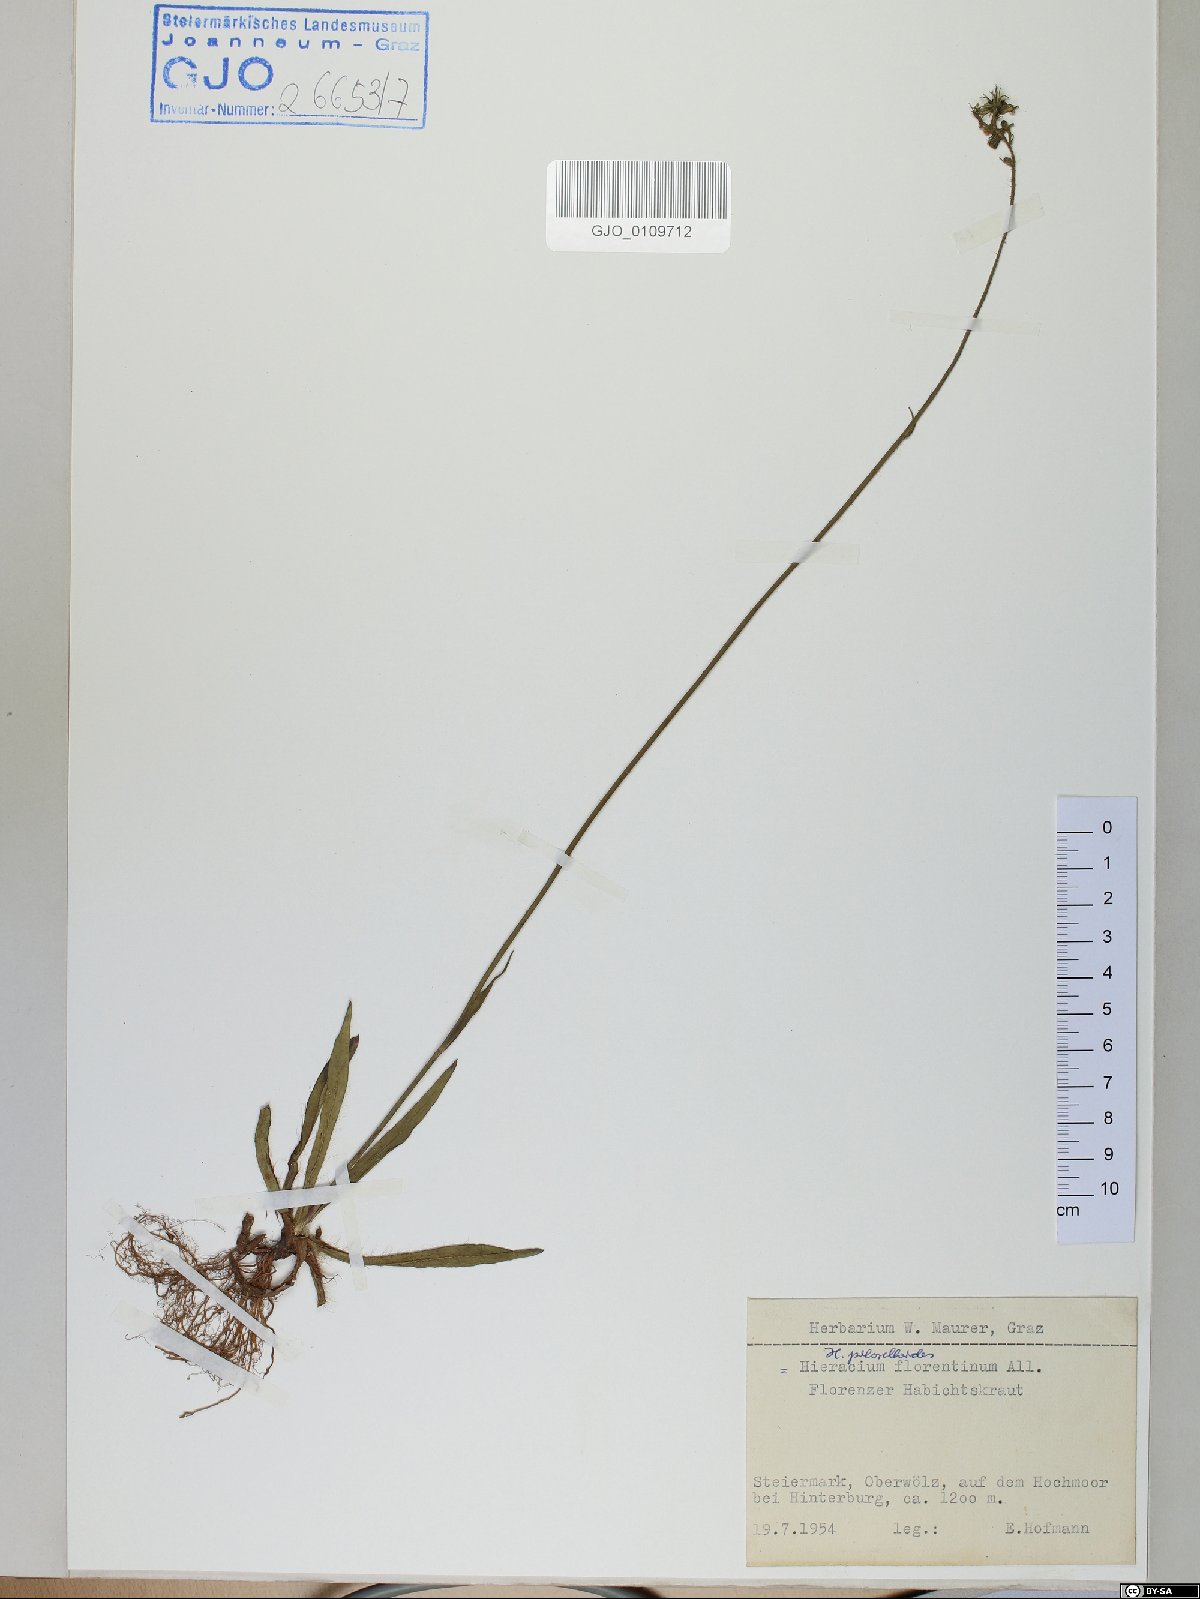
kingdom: Plantae
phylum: Tracheophyta
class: Magnoliopsida
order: Asterales
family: Asteraceae
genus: Pilosella
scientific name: Pilosella piloselloides
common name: Glaucous king-devil
